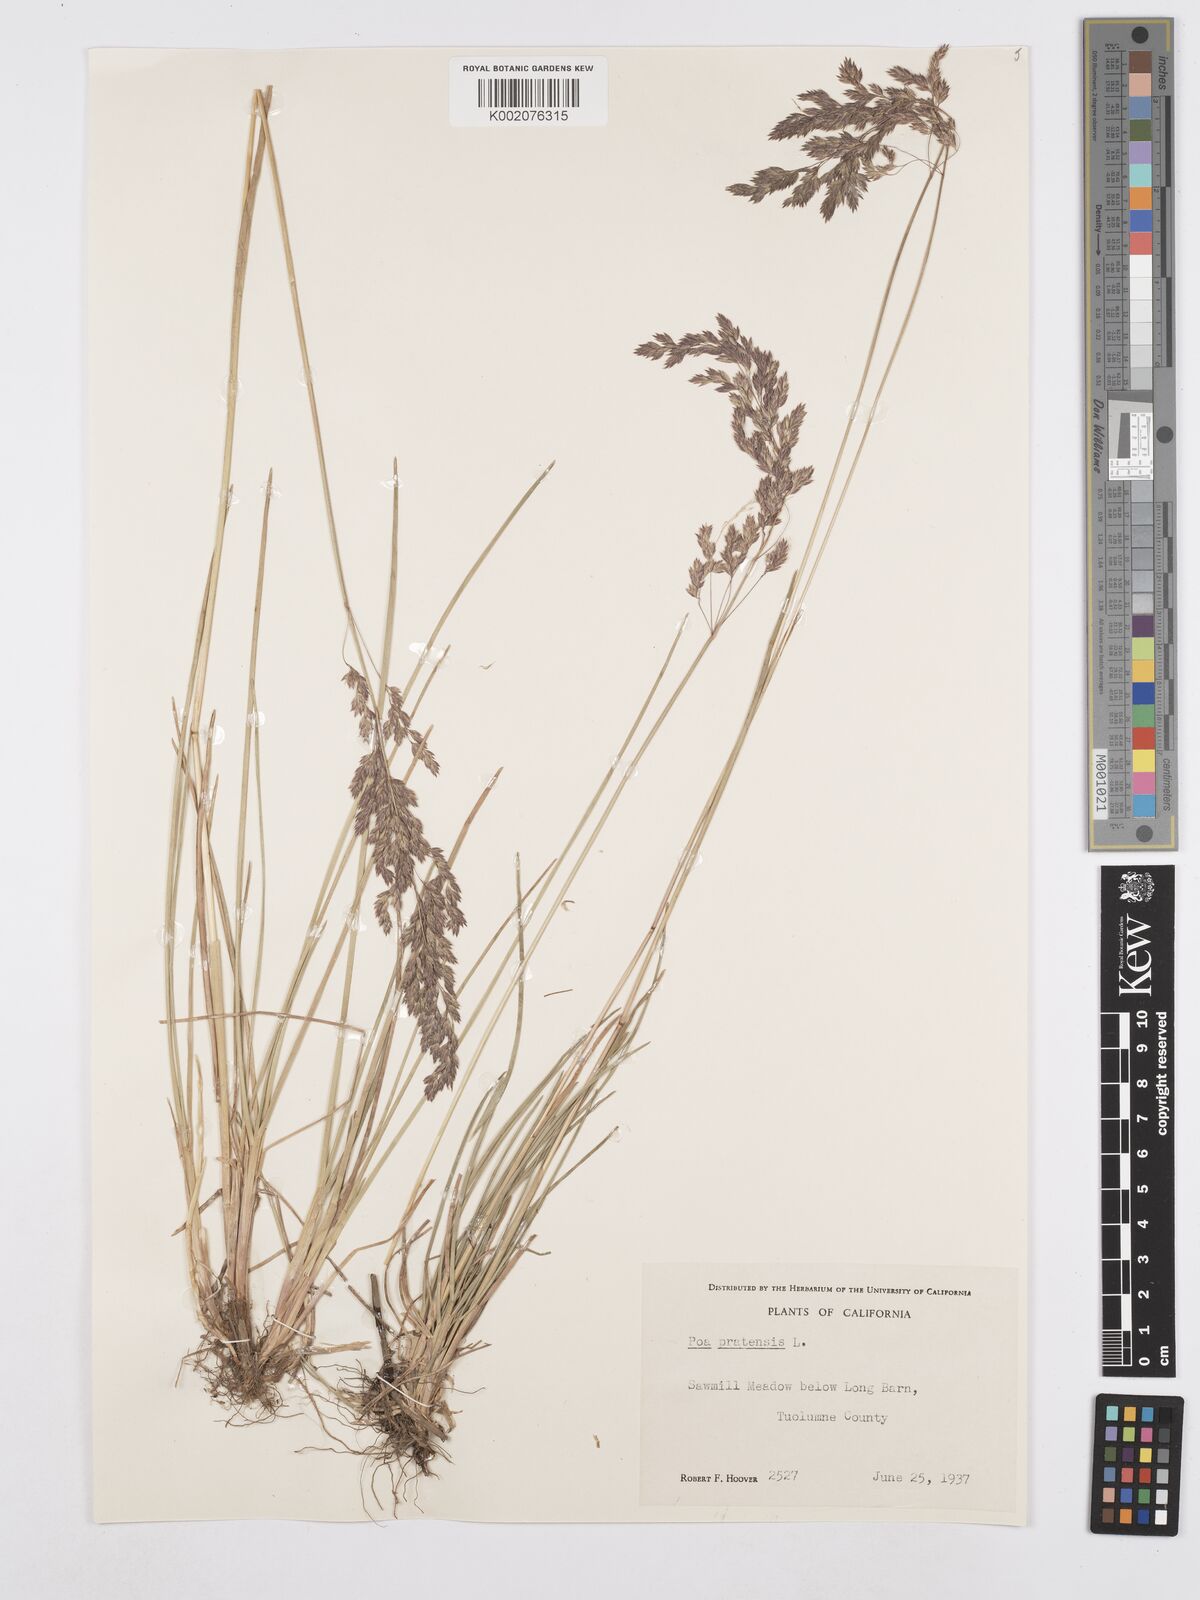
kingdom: Plantae
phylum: Tracheophyta
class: Liliopsida
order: Poales
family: Poaceae
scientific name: Poaceae
